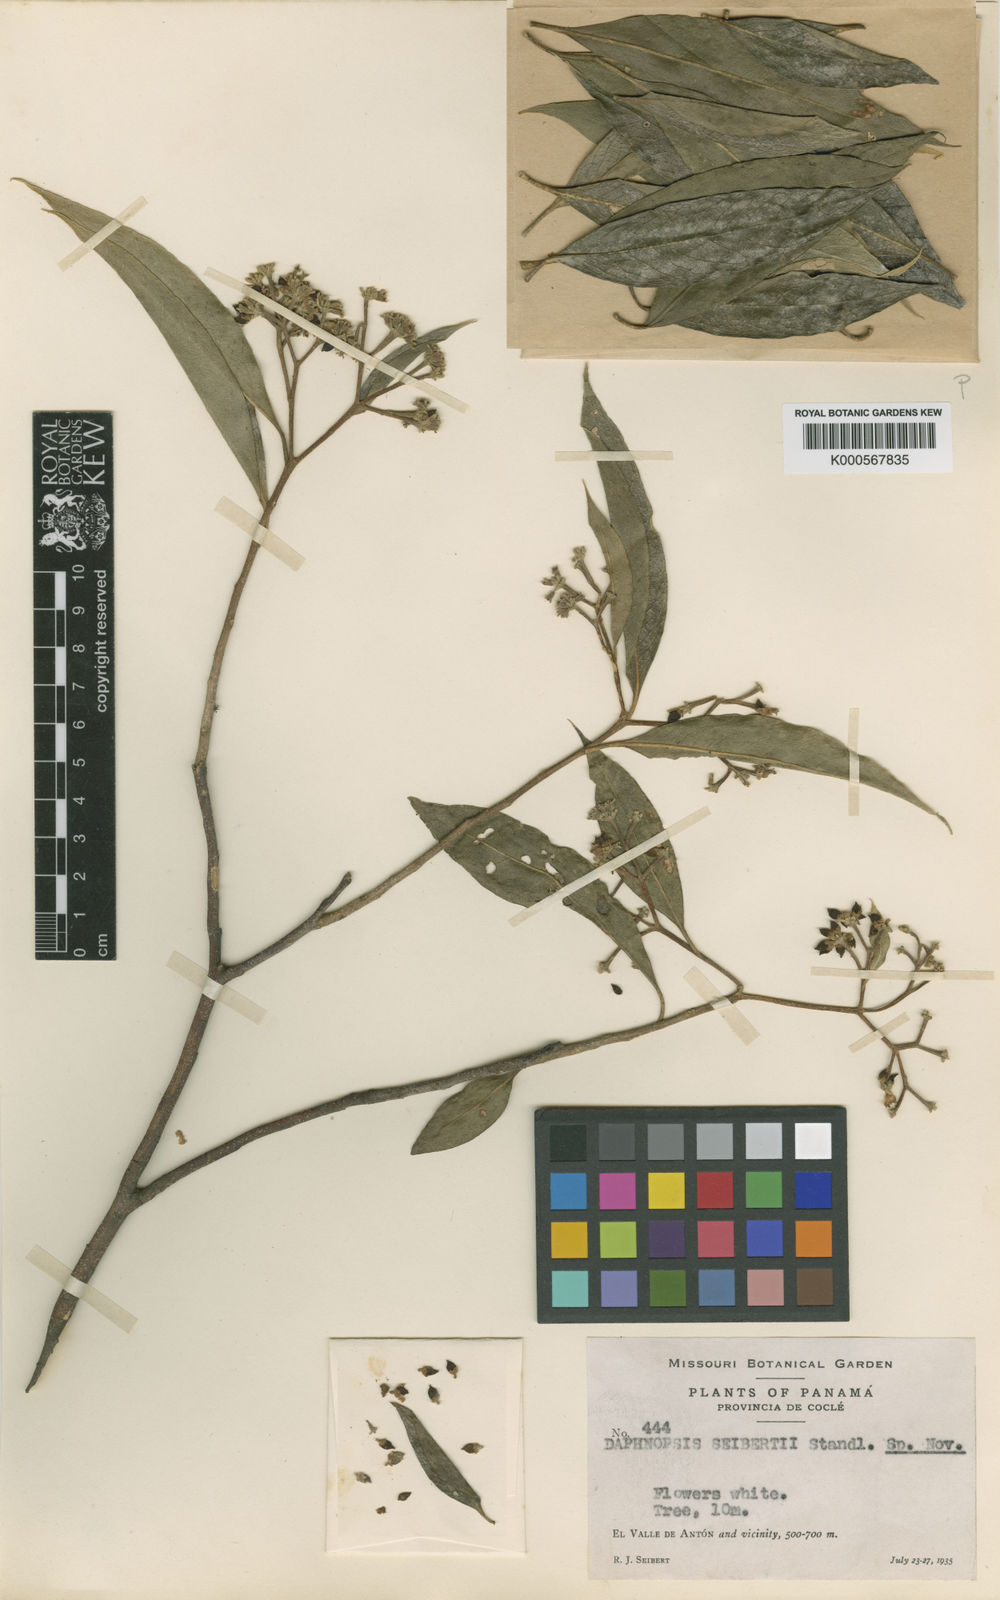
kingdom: Plantae
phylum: Tracheophyta
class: Magnoliopsida
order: Malvales
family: Thymelaeaceae
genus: Daphnopsis
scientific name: Daphnopsis americana
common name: Maho
